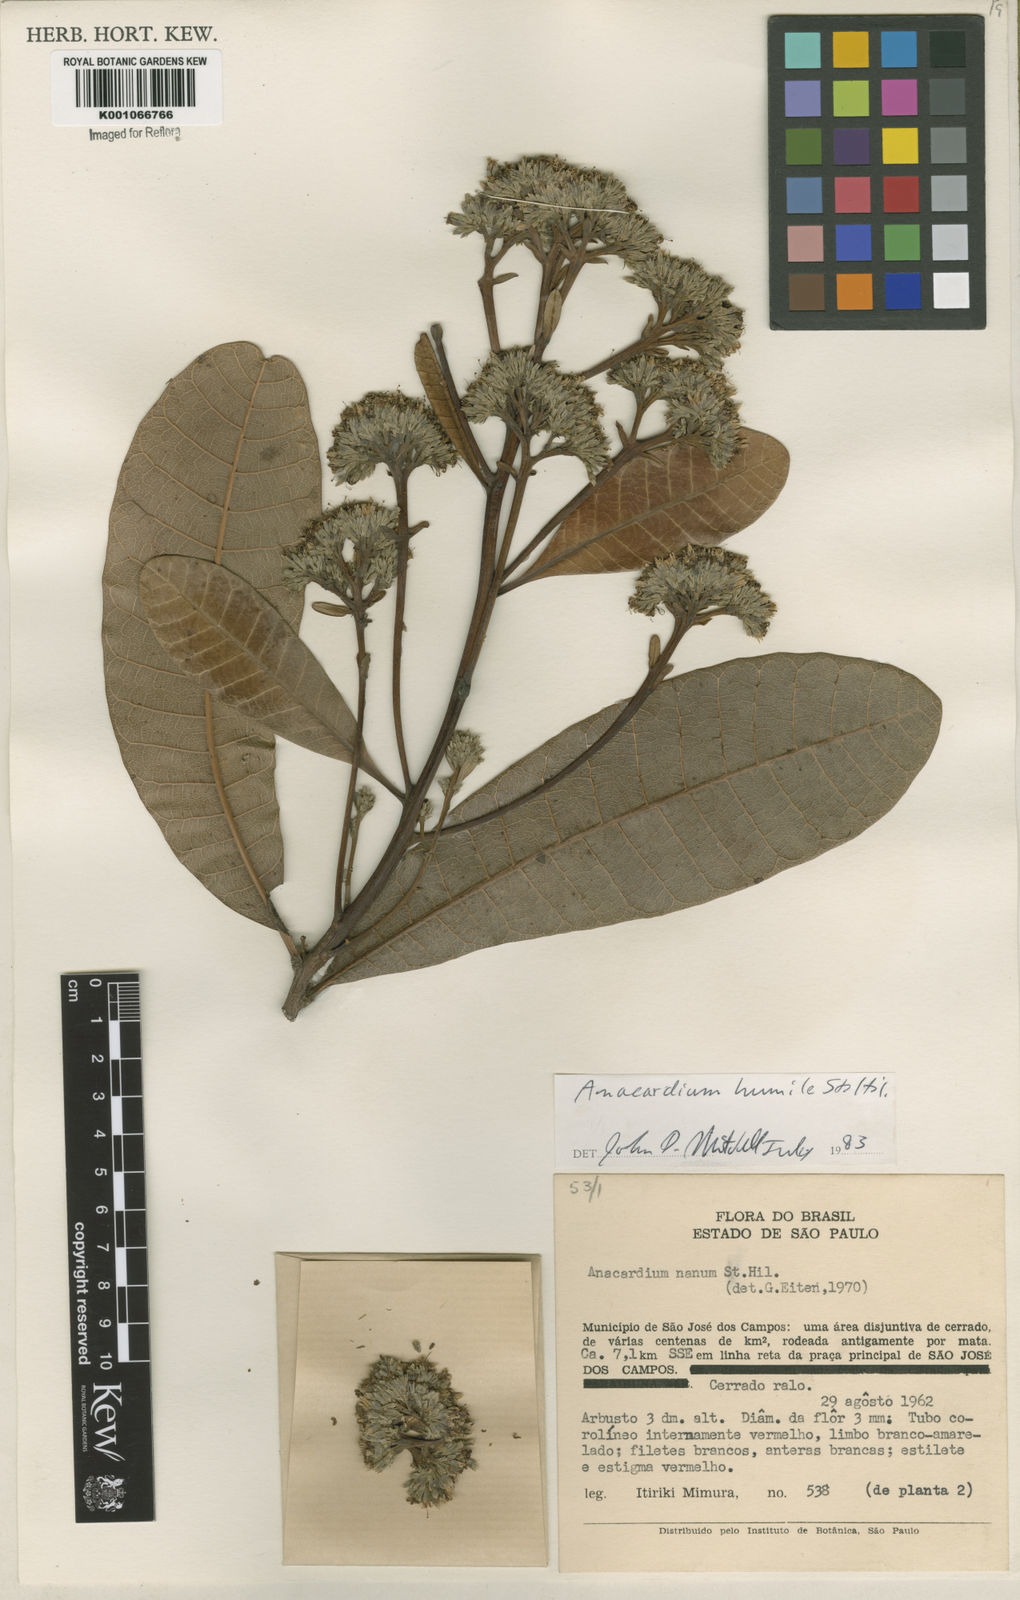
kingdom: Plantae
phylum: Tracheophyta
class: Magnoliopsida
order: Sapindales
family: Anacardiaceae
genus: Anacardium
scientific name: Anacardium humile
